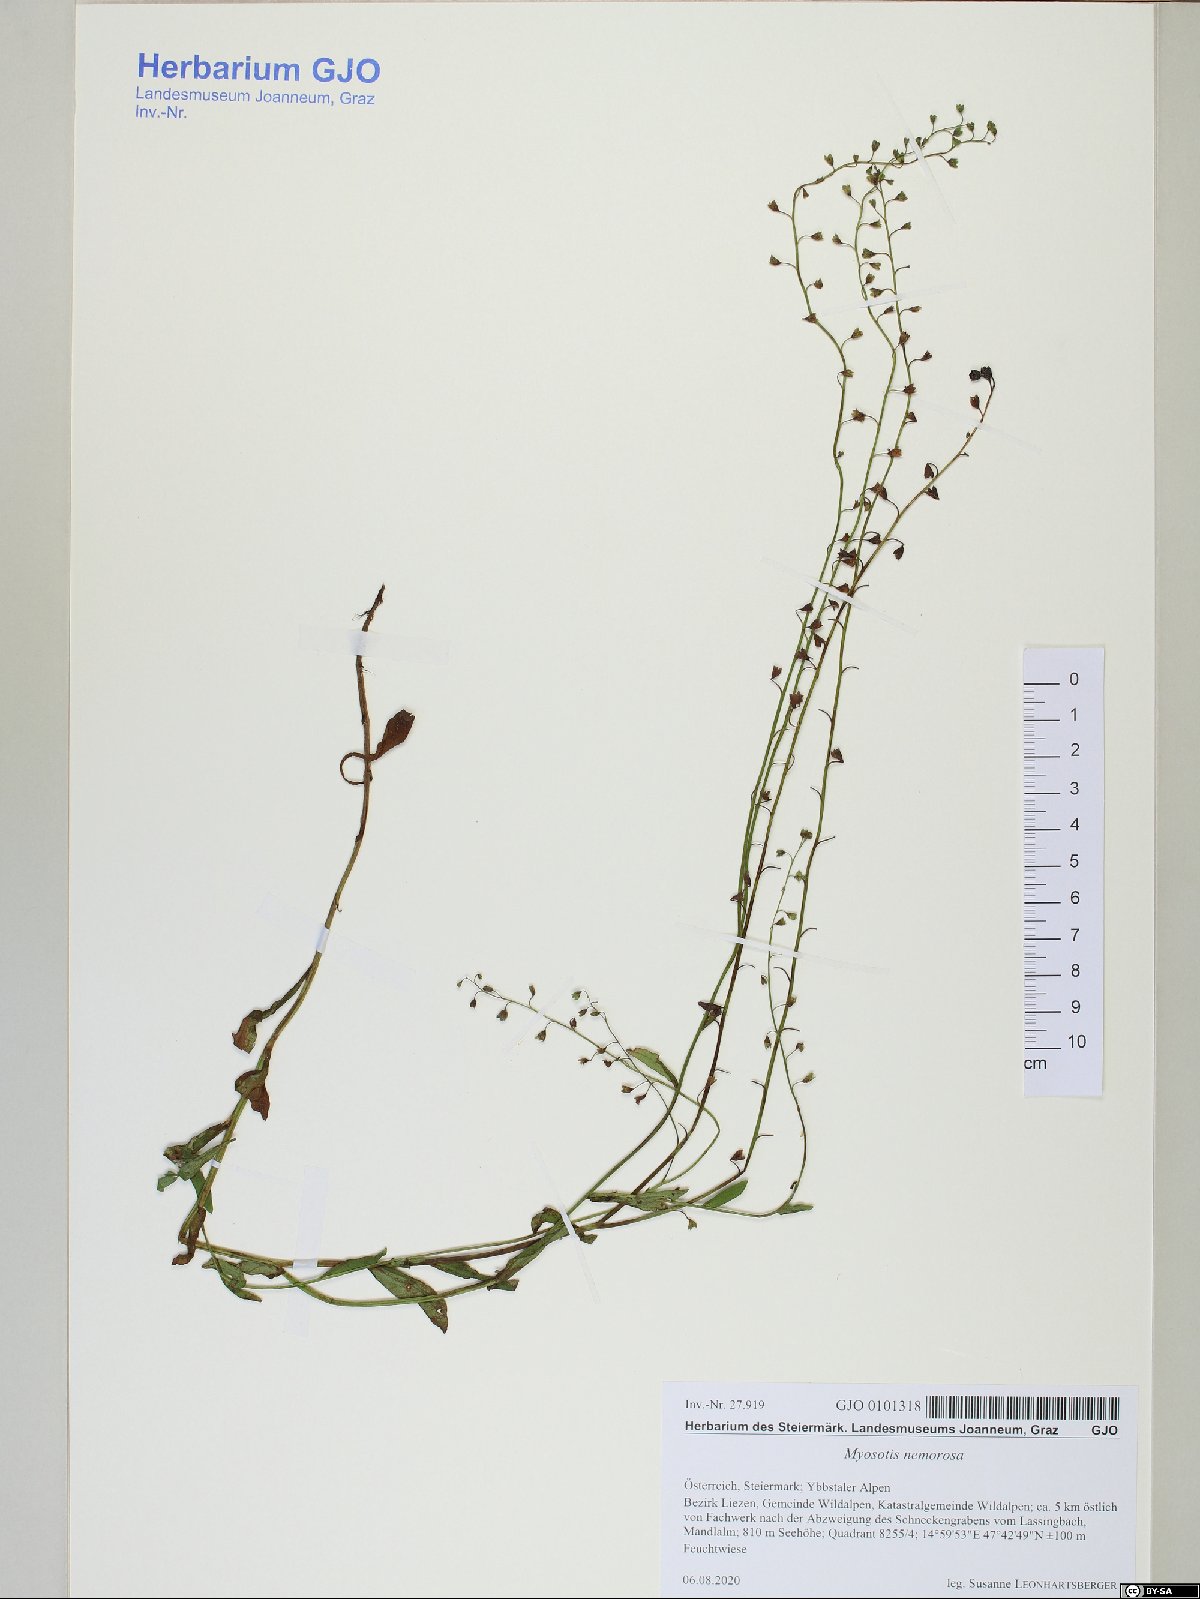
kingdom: Plantae
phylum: Tracheophyta
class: Magnoliopsida
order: Boraginales
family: Boraginaceae
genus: Myosotis
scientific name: Myosotis nemorosa
